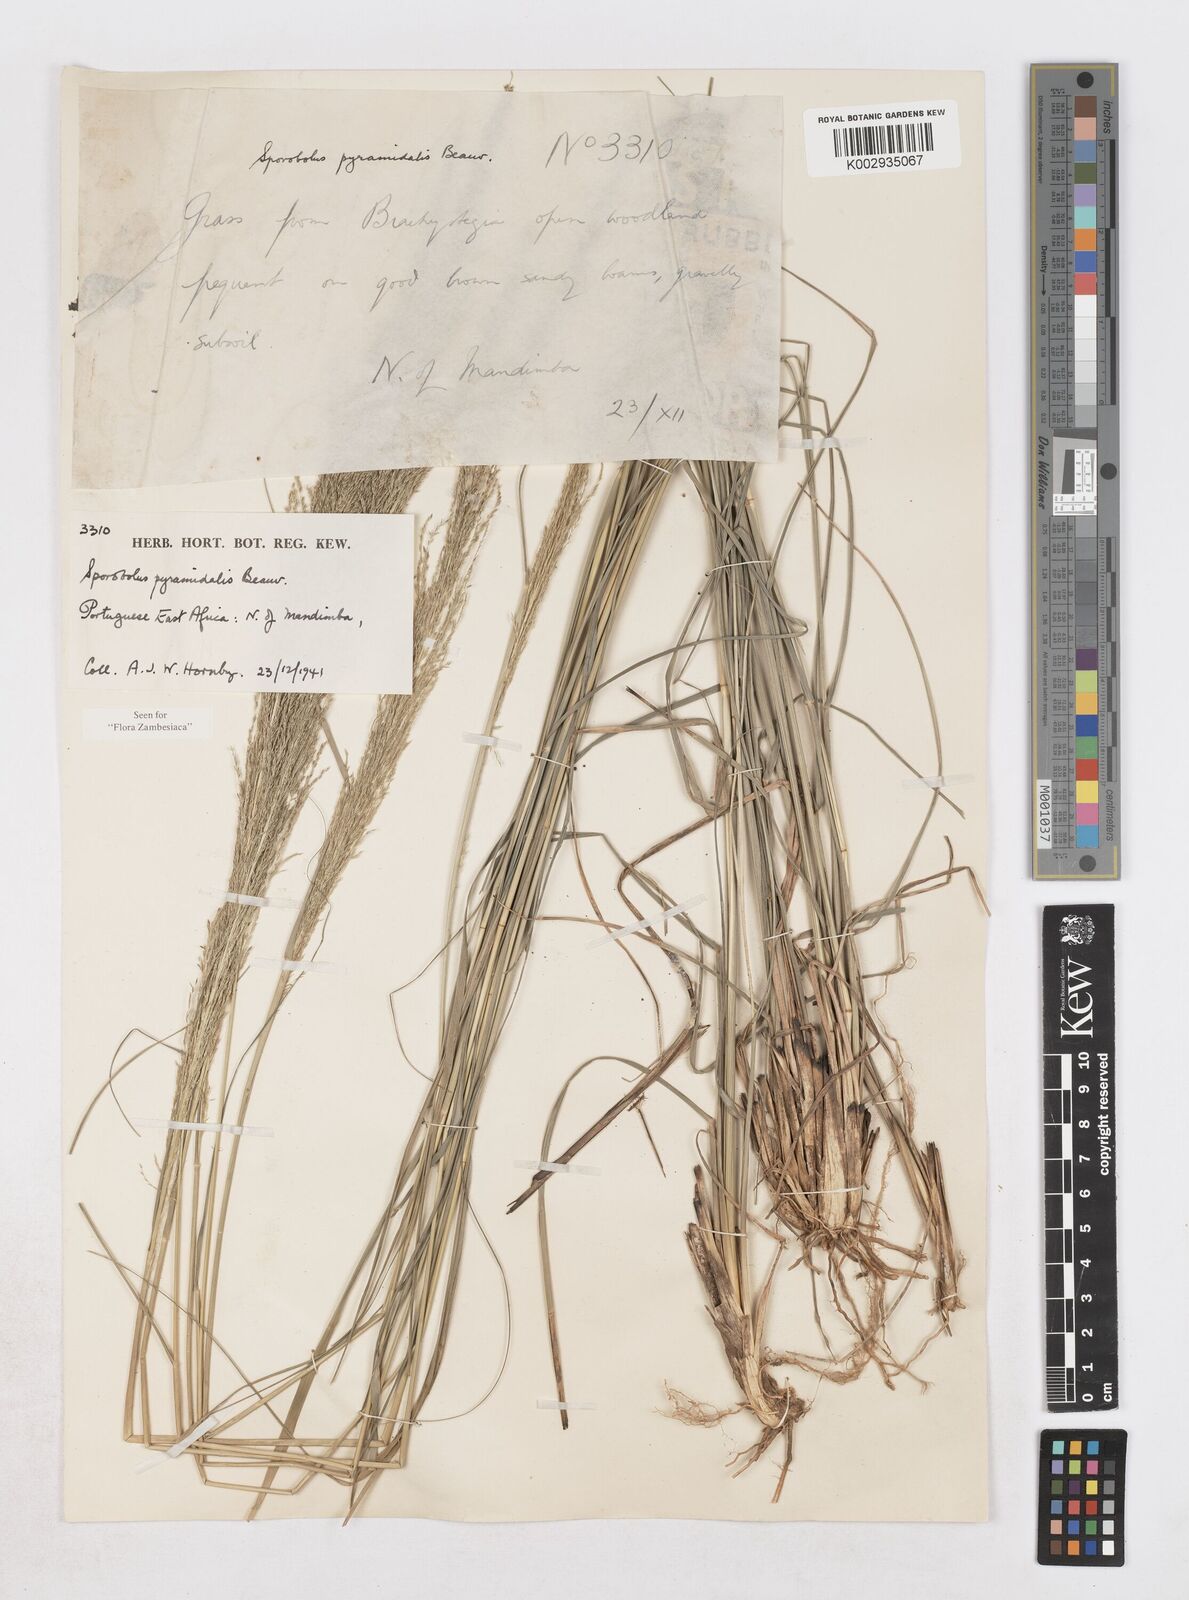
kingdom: Plantae
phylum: Tracheophyta
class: Liliopsida
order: Poales
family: Poaceae
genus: Sporobolus
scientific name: Sporobolus pyramidalis
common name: West indian dropseed
